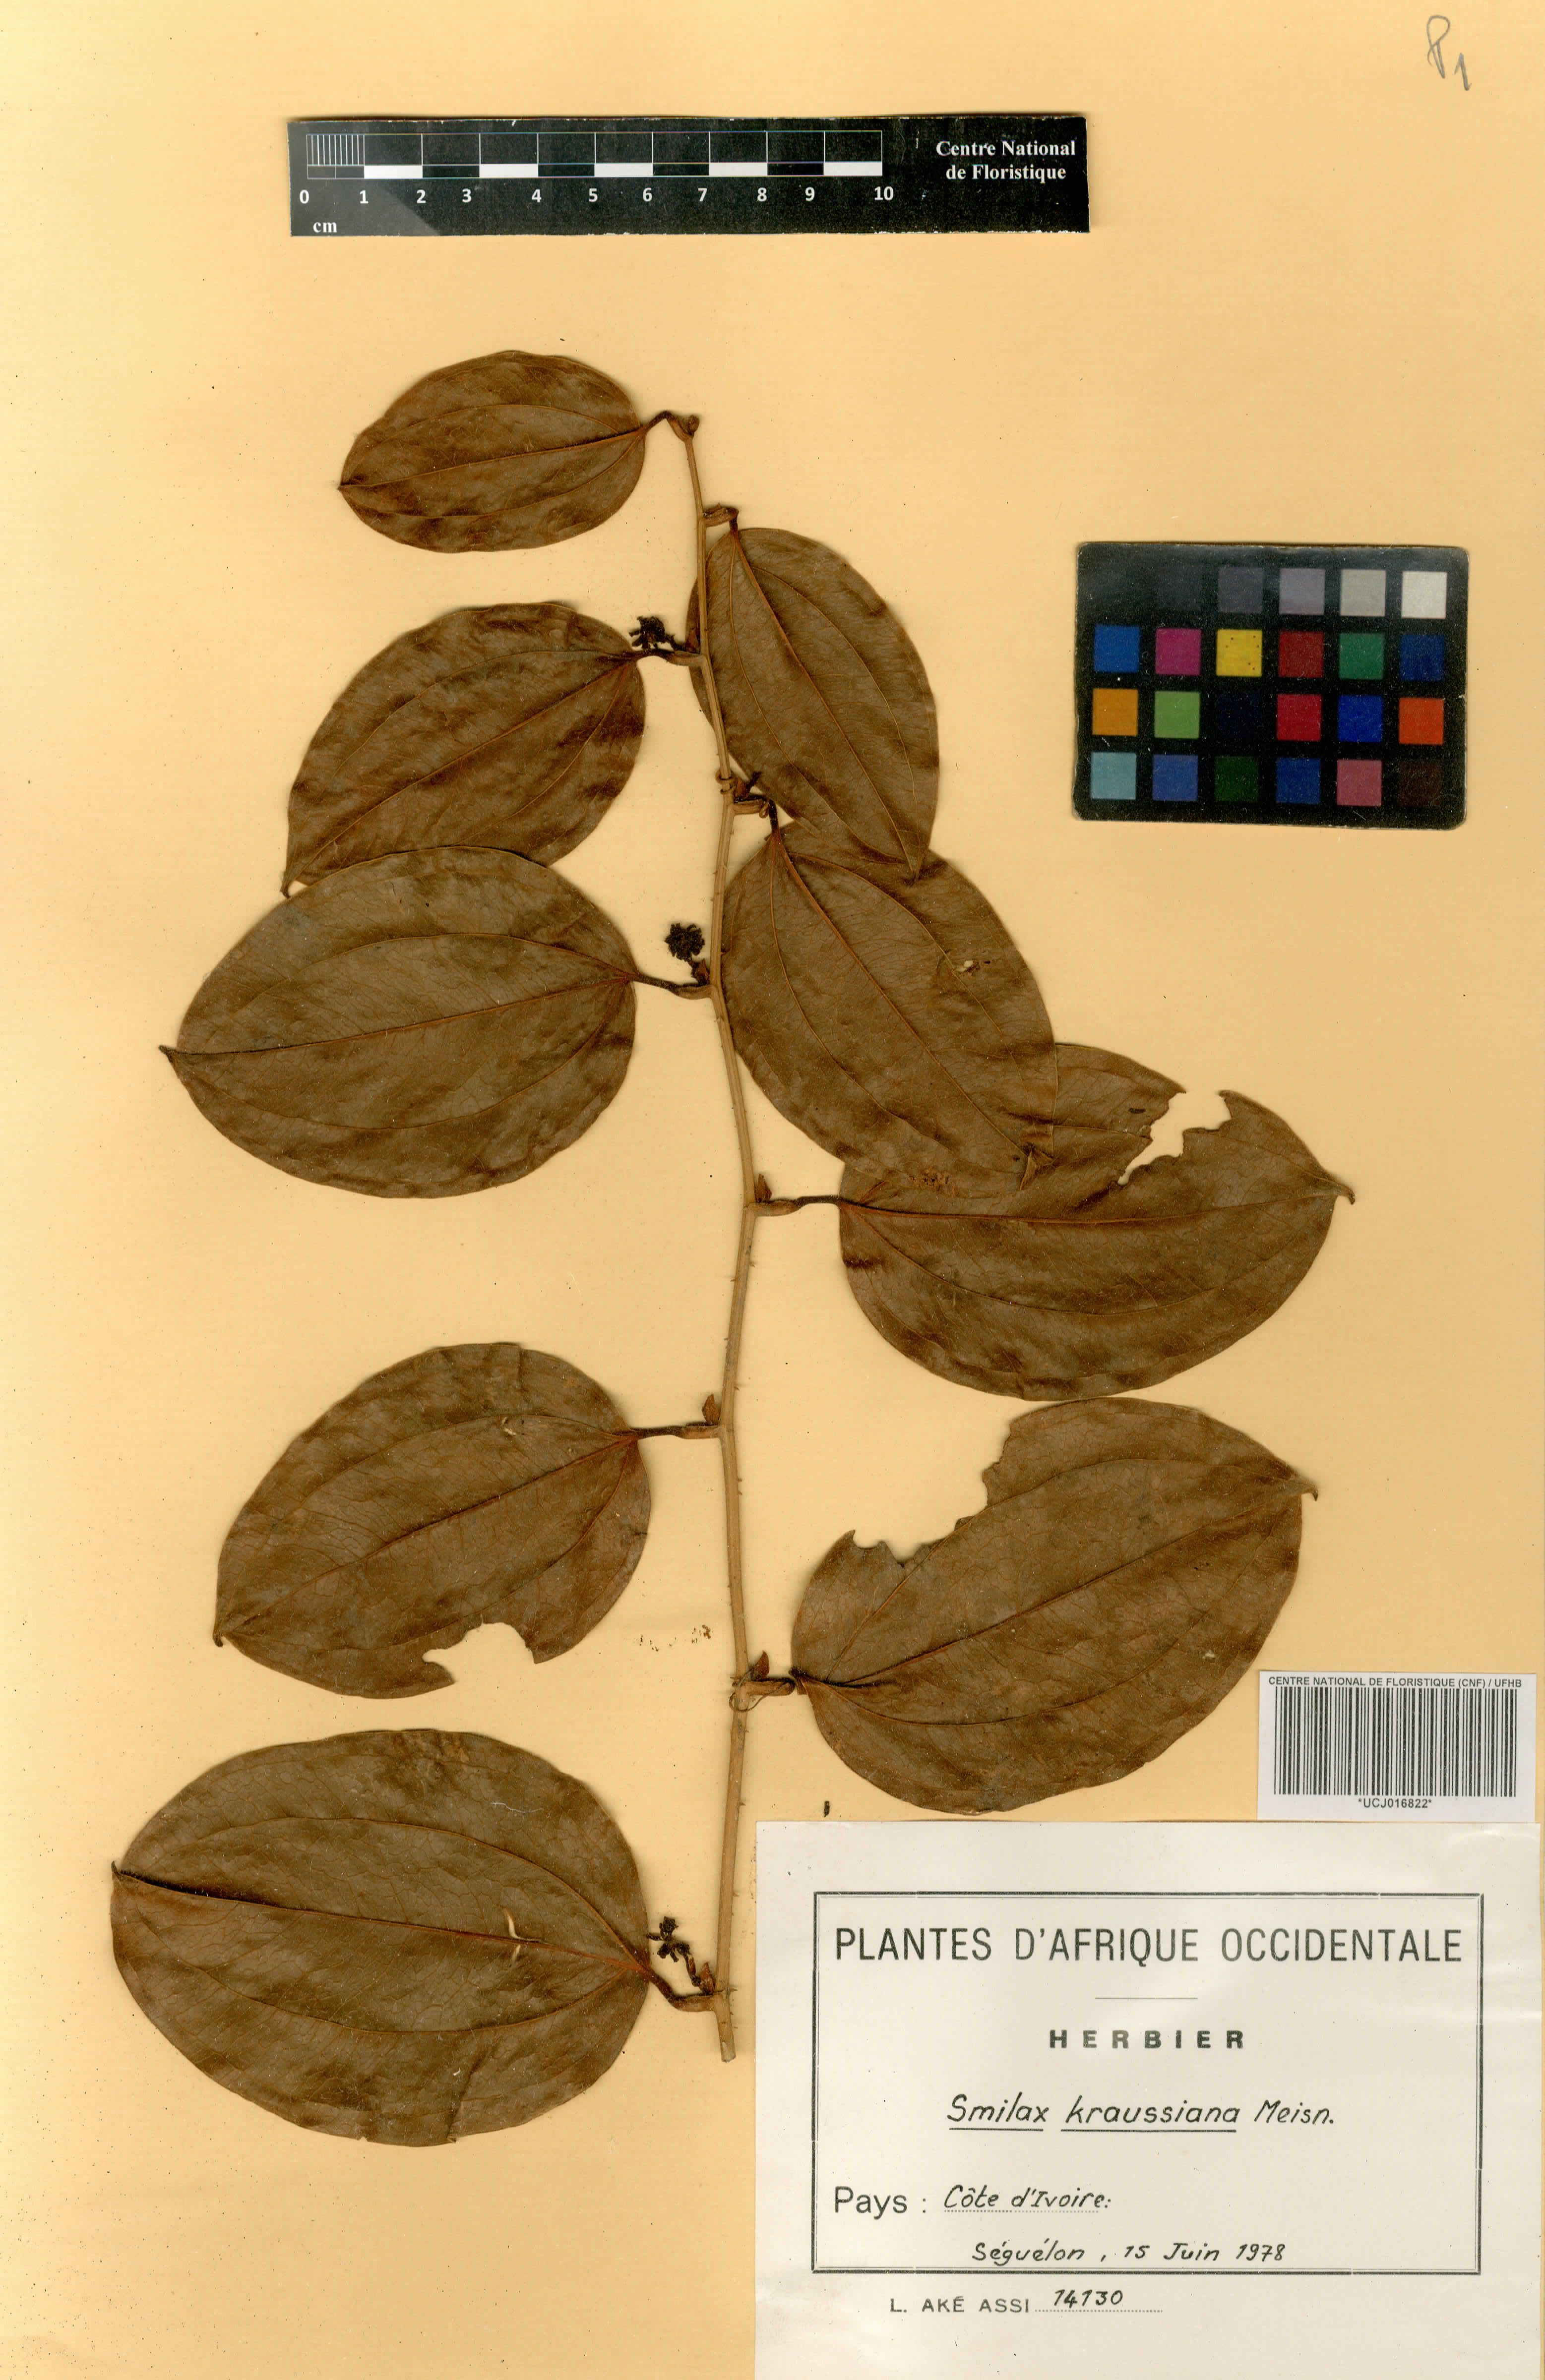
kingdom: Plantae
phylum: Tracheophyta
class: Liliopsida
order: Liliales
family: Smilacaceae
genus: Smilax
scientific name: Smilax anceps
